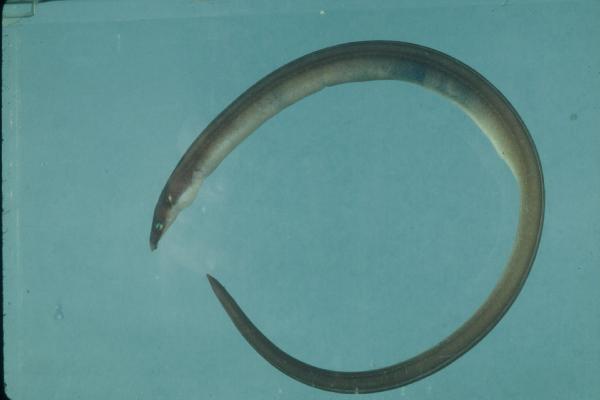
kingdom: Animalia
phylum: Chordata
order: Anguilliformes
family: Ophichthidae
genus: Ophisurus
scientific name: Ophisurus serpens
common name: Serpent eel
